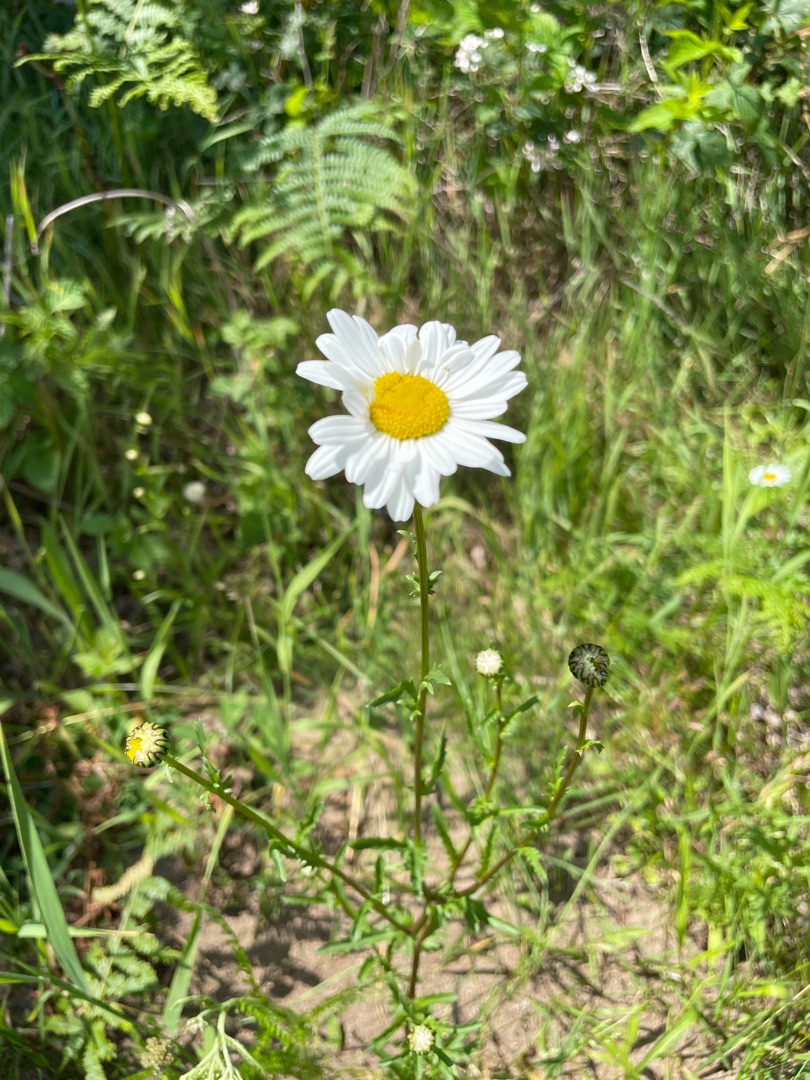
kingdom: Plantae
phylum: Tracheophyta
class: Magnoliopsida
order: Asterales
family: Asteraceae
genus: Leucanthemum
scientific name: Leucanthemum vulgare
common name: Hvid okseøje
